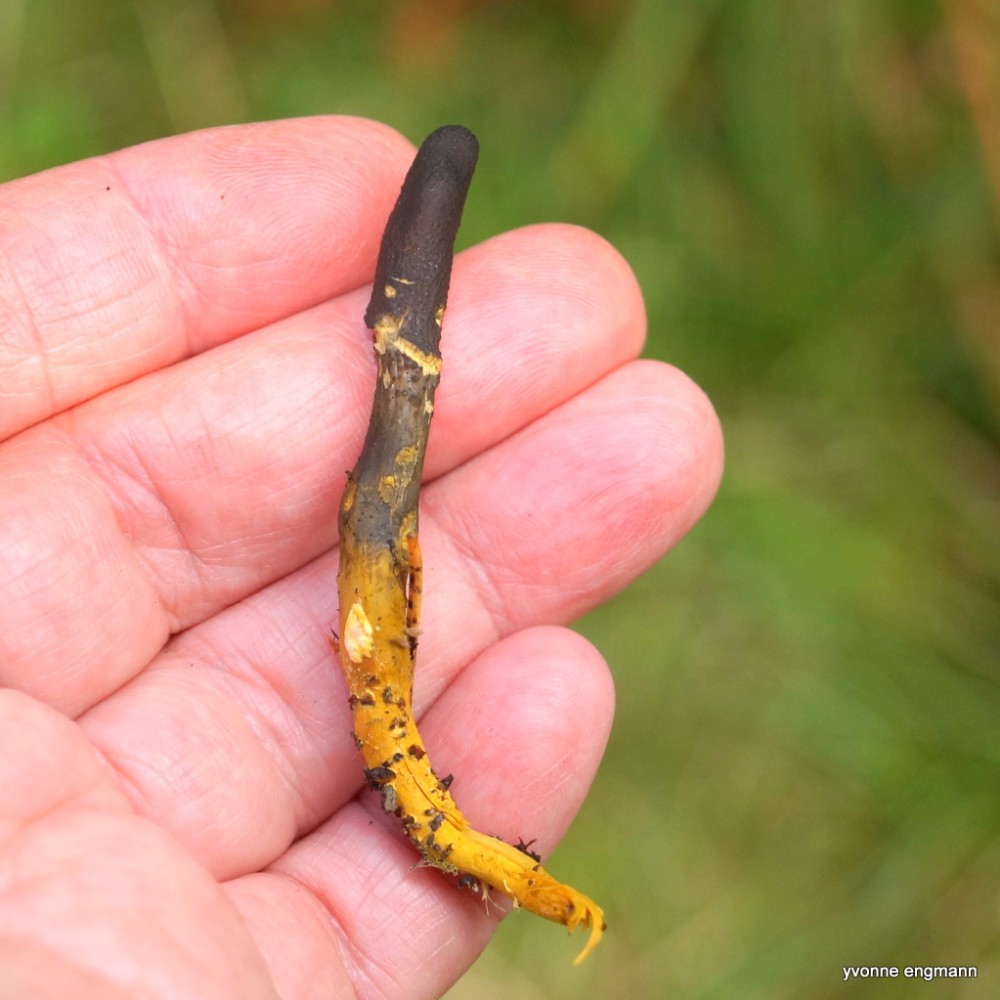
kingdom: Fungi
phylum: Ascomycota
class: Sordariomycetes
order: Hypocreales
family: Ophiocordycipitaceae
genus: Tolypocladium
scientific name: Tolypocladium ophioglossoides
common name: slank snyltekølle
